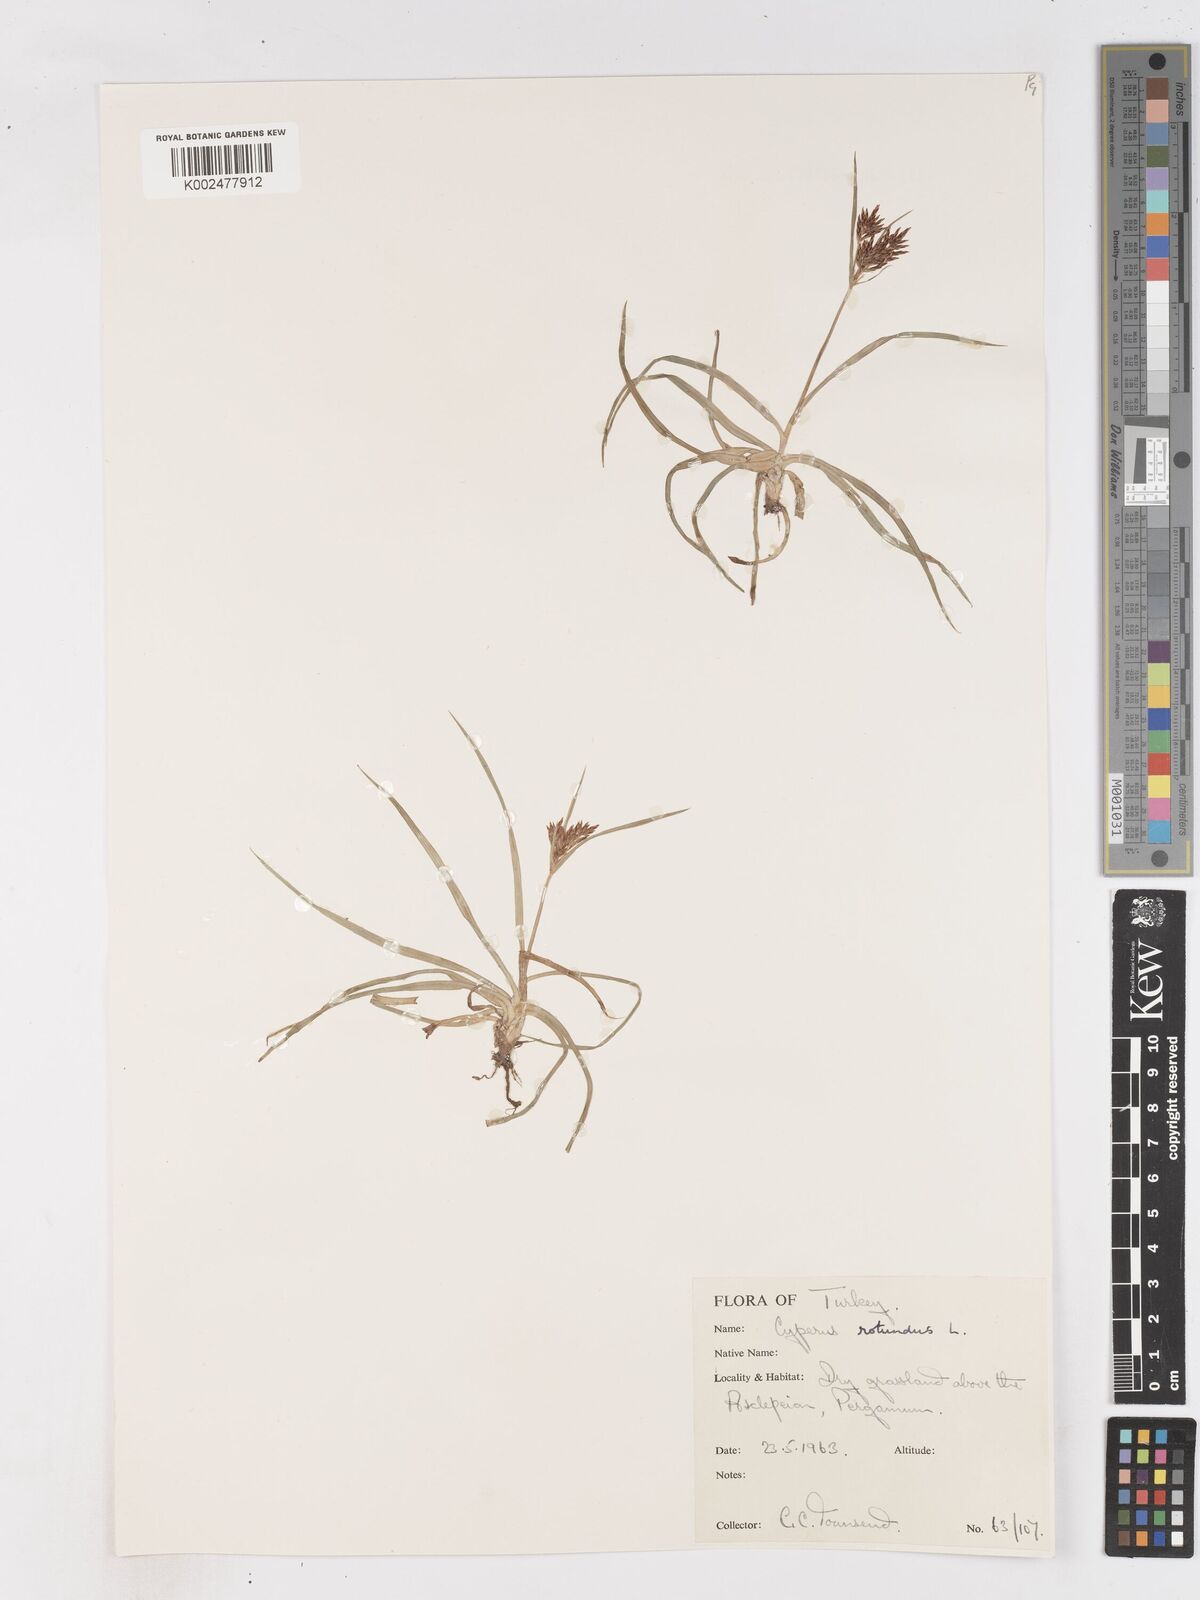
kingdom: Plantae
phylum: Tracheophyta
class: Liliopsida
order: Poales
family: Cyperaceae
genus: Cyperus
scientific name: Cyperus rotundus
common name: Nutgrass
